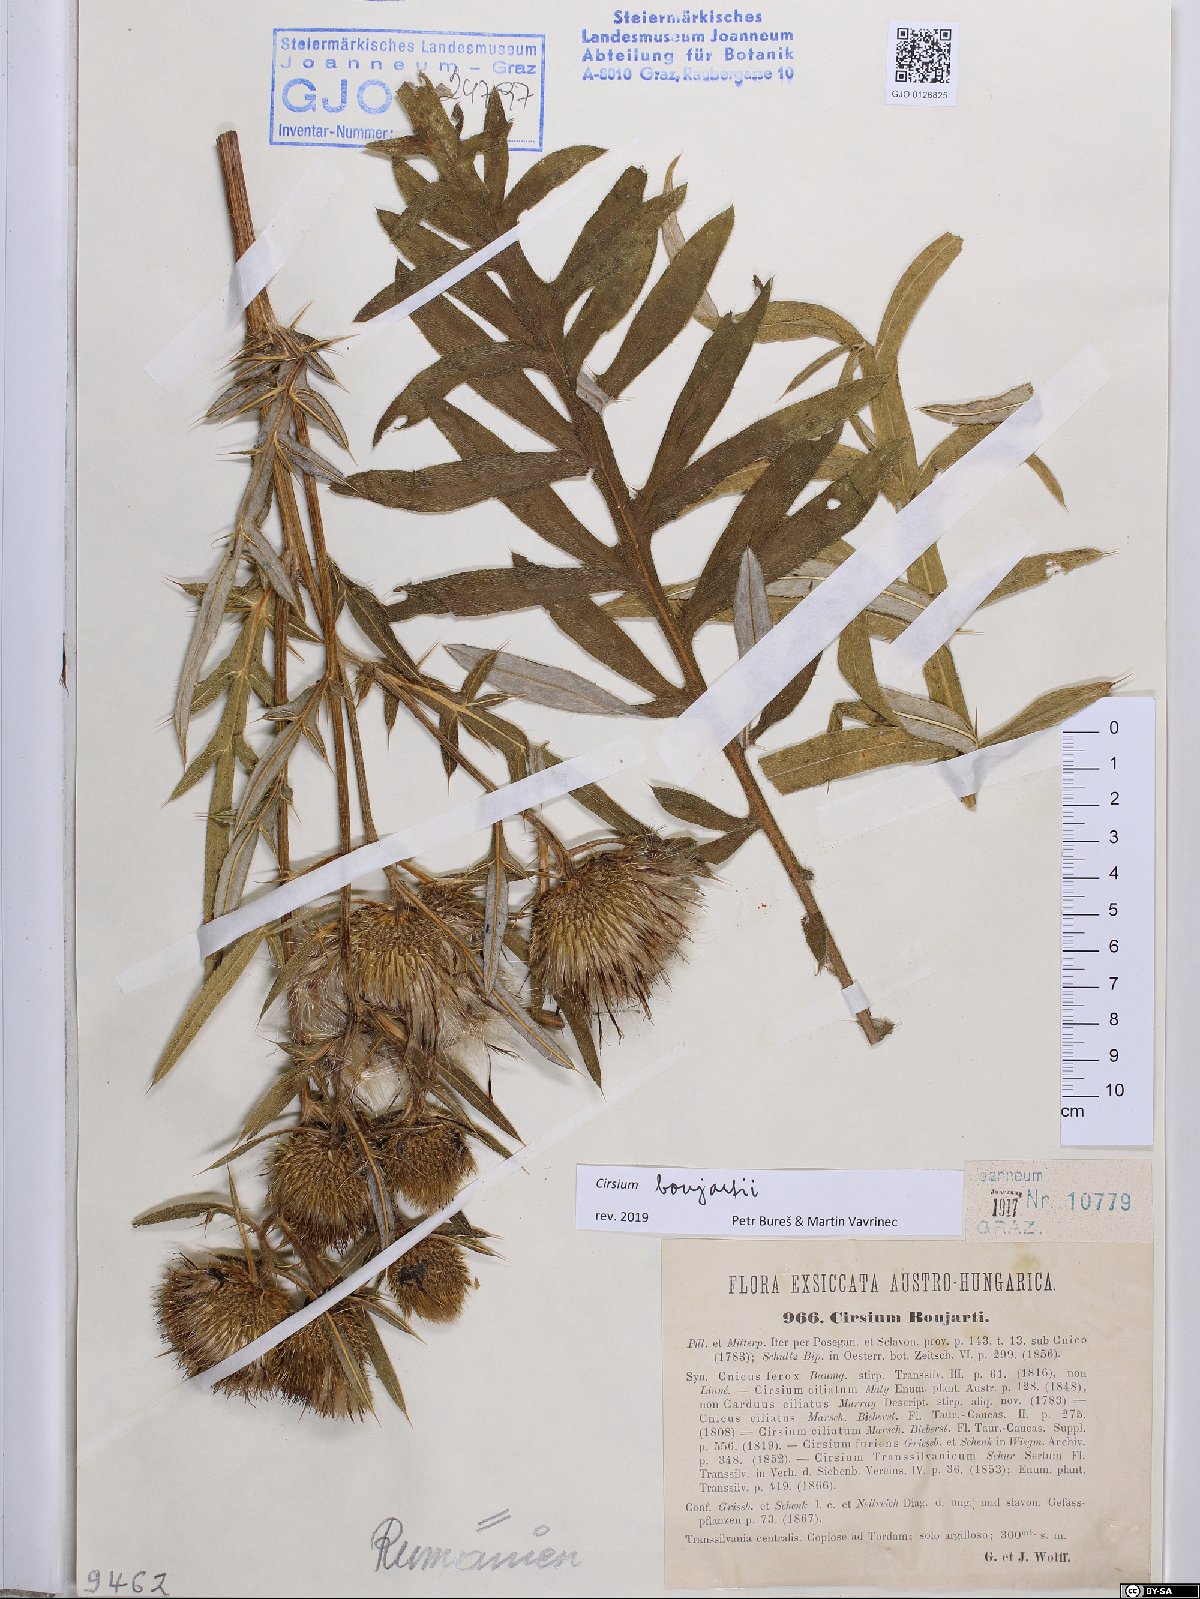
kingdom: Plantae
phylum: Tracheophyta
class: Magnoliopsida
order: Asterales
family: Asteraceae
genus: Lophiolepis
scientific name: Lophiolepis boujartii
